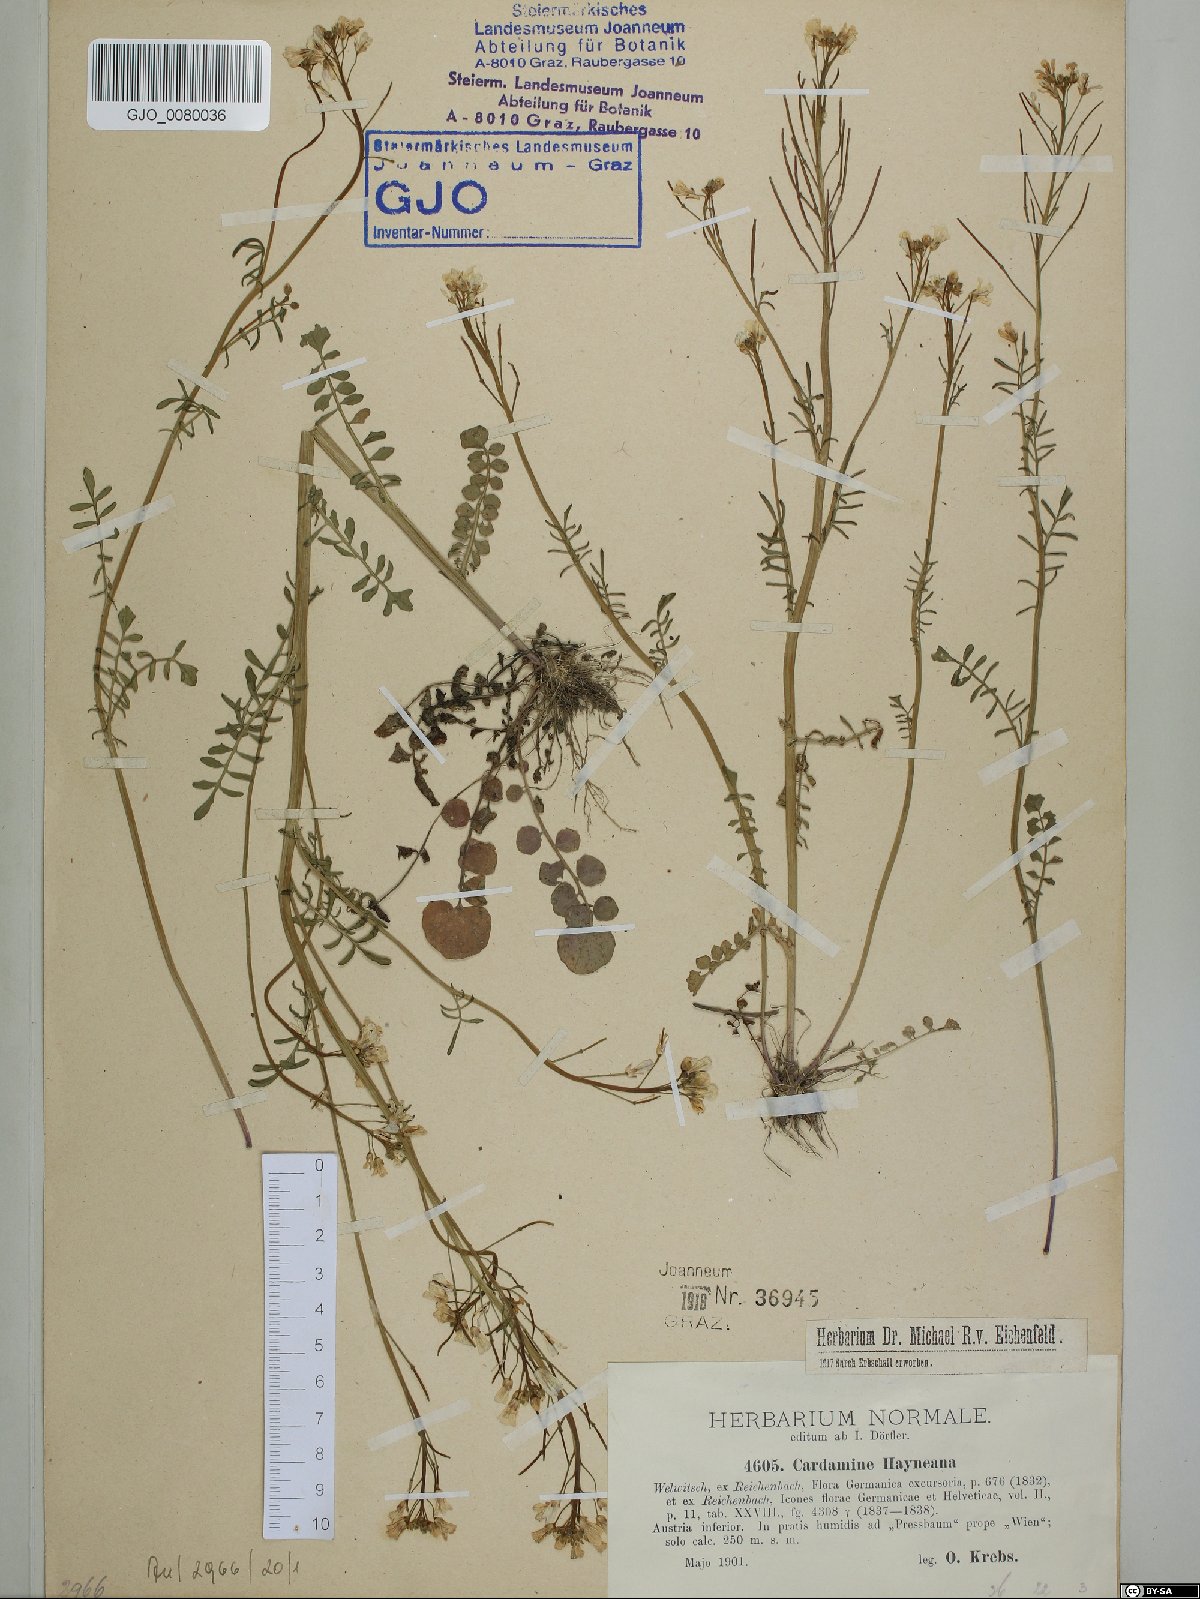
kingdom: Plantae
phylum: Tracheophyta
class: Magnoliopsida
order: Brassicales
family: Brassicaceae
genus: Cardamine
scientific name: Cardamine matthioli
